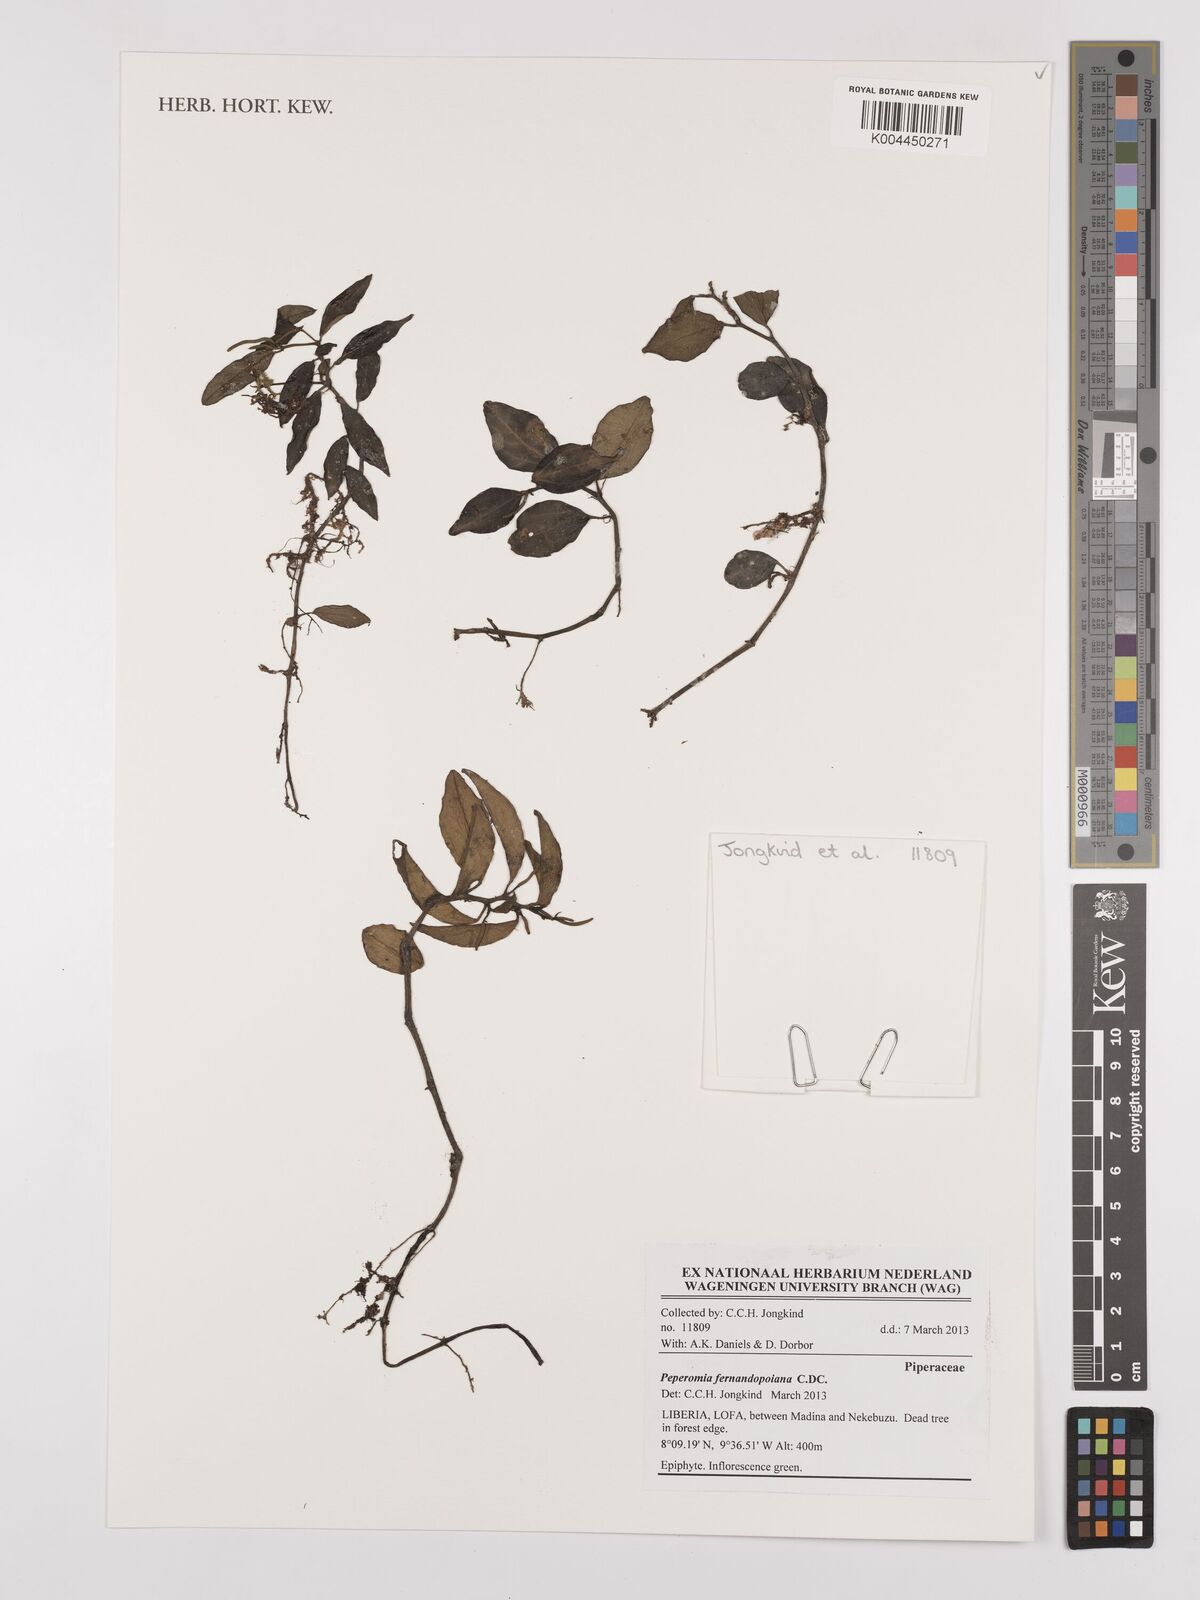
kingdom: Plantae
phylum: Tracheophyta
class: Magnoliopsida
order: Piperales
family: Piperaceae
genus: Peperomia
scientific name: Peperomia fernandeziana
